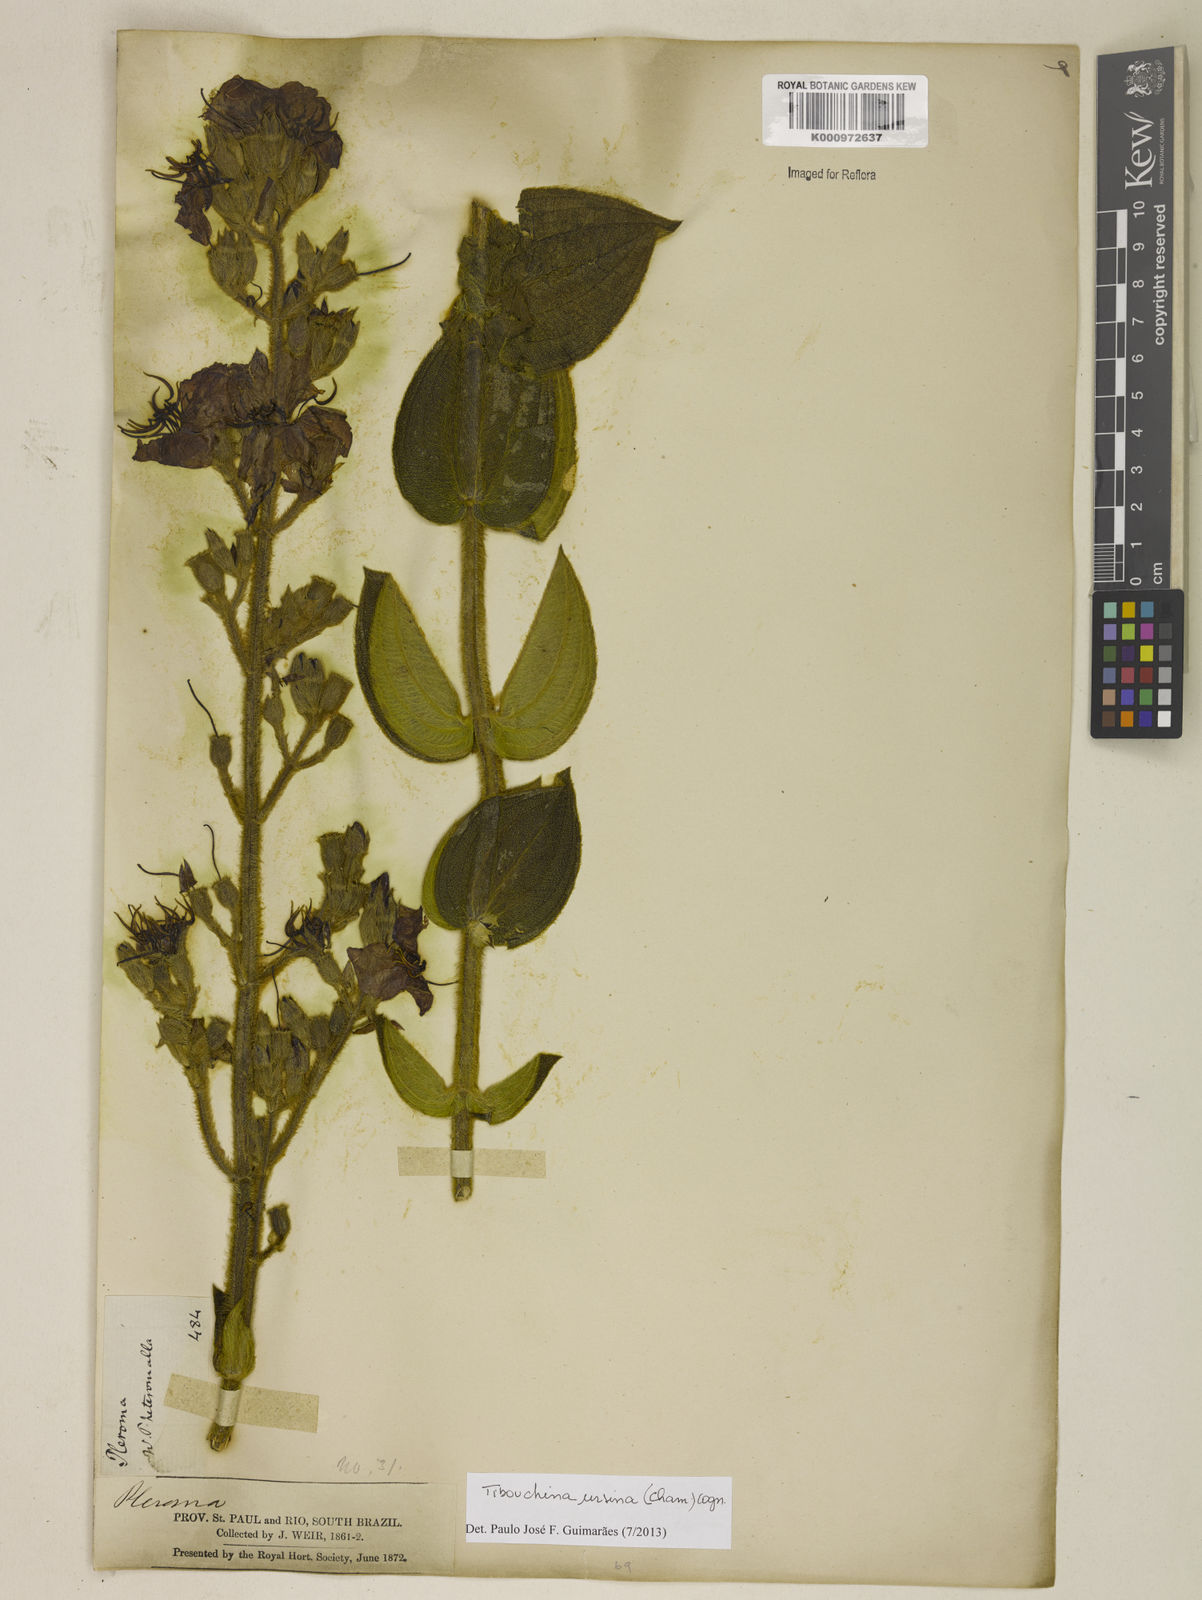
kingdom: Plantae
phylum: Tracheophyta
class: Magnoliopsida
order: Myrtales
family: Melastomataceae
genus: Pleroma
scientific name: Pleroma ursinum
